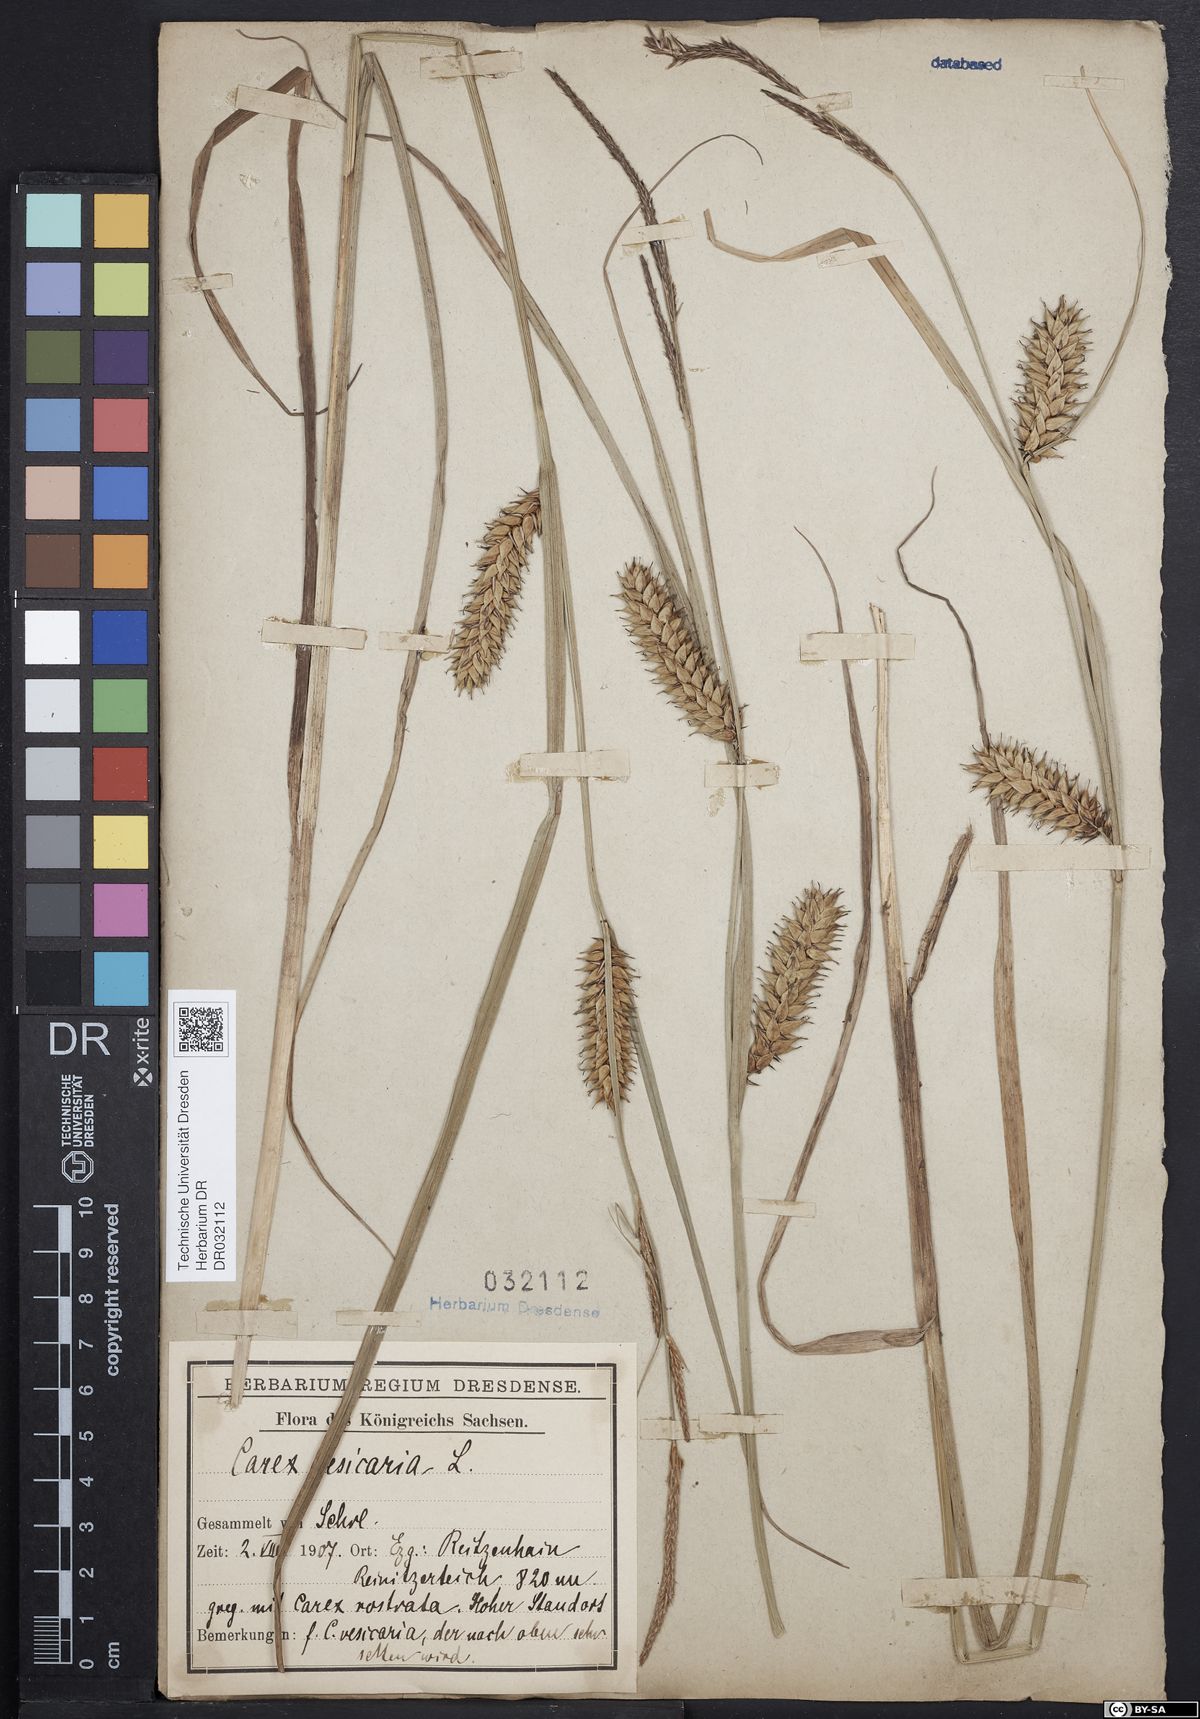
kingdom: Plantae
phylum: Tracheophyta
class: Liliopsida
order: Poales
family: Cyperaceae
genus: Carex
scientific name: Carex vesicaria
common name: Bladder-sedge
